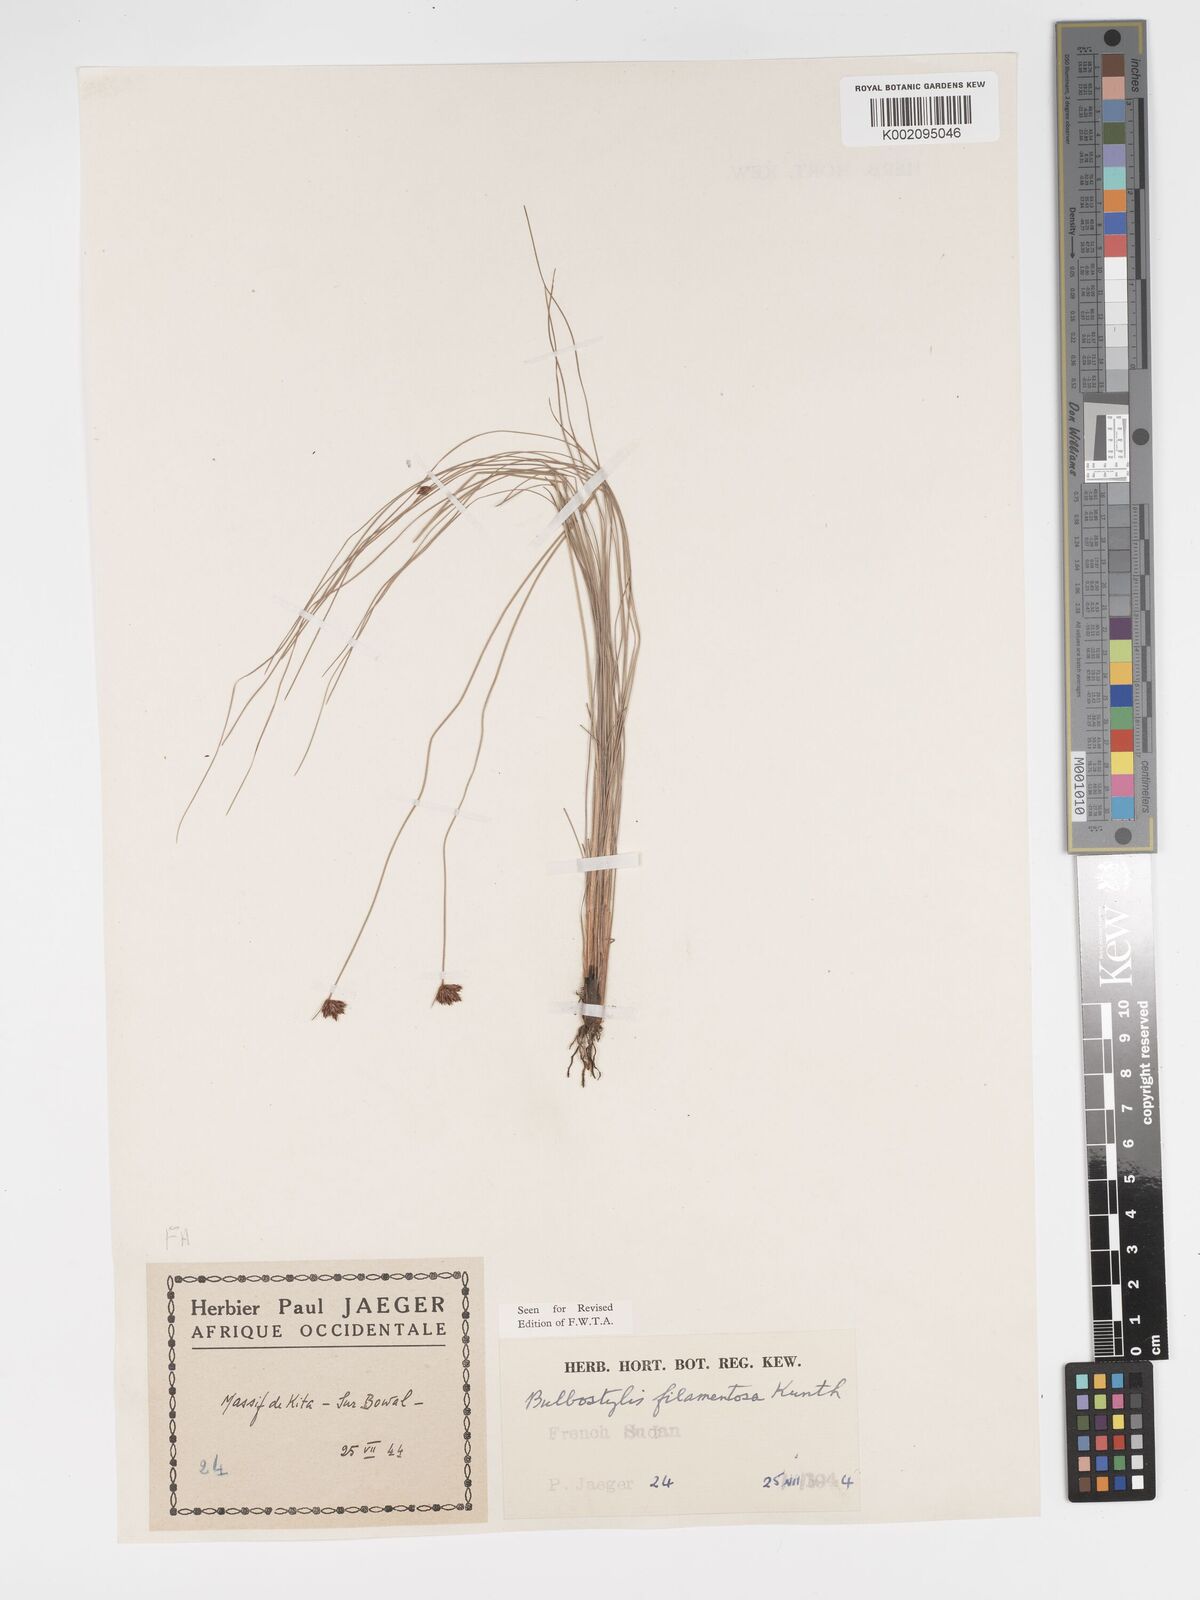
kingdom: Plantae
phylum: Tracheophyta
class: Liliopsida
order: Poales
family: Cyperaceae
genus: Bulbostylis
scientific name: Bulbostylis scabricaulis
